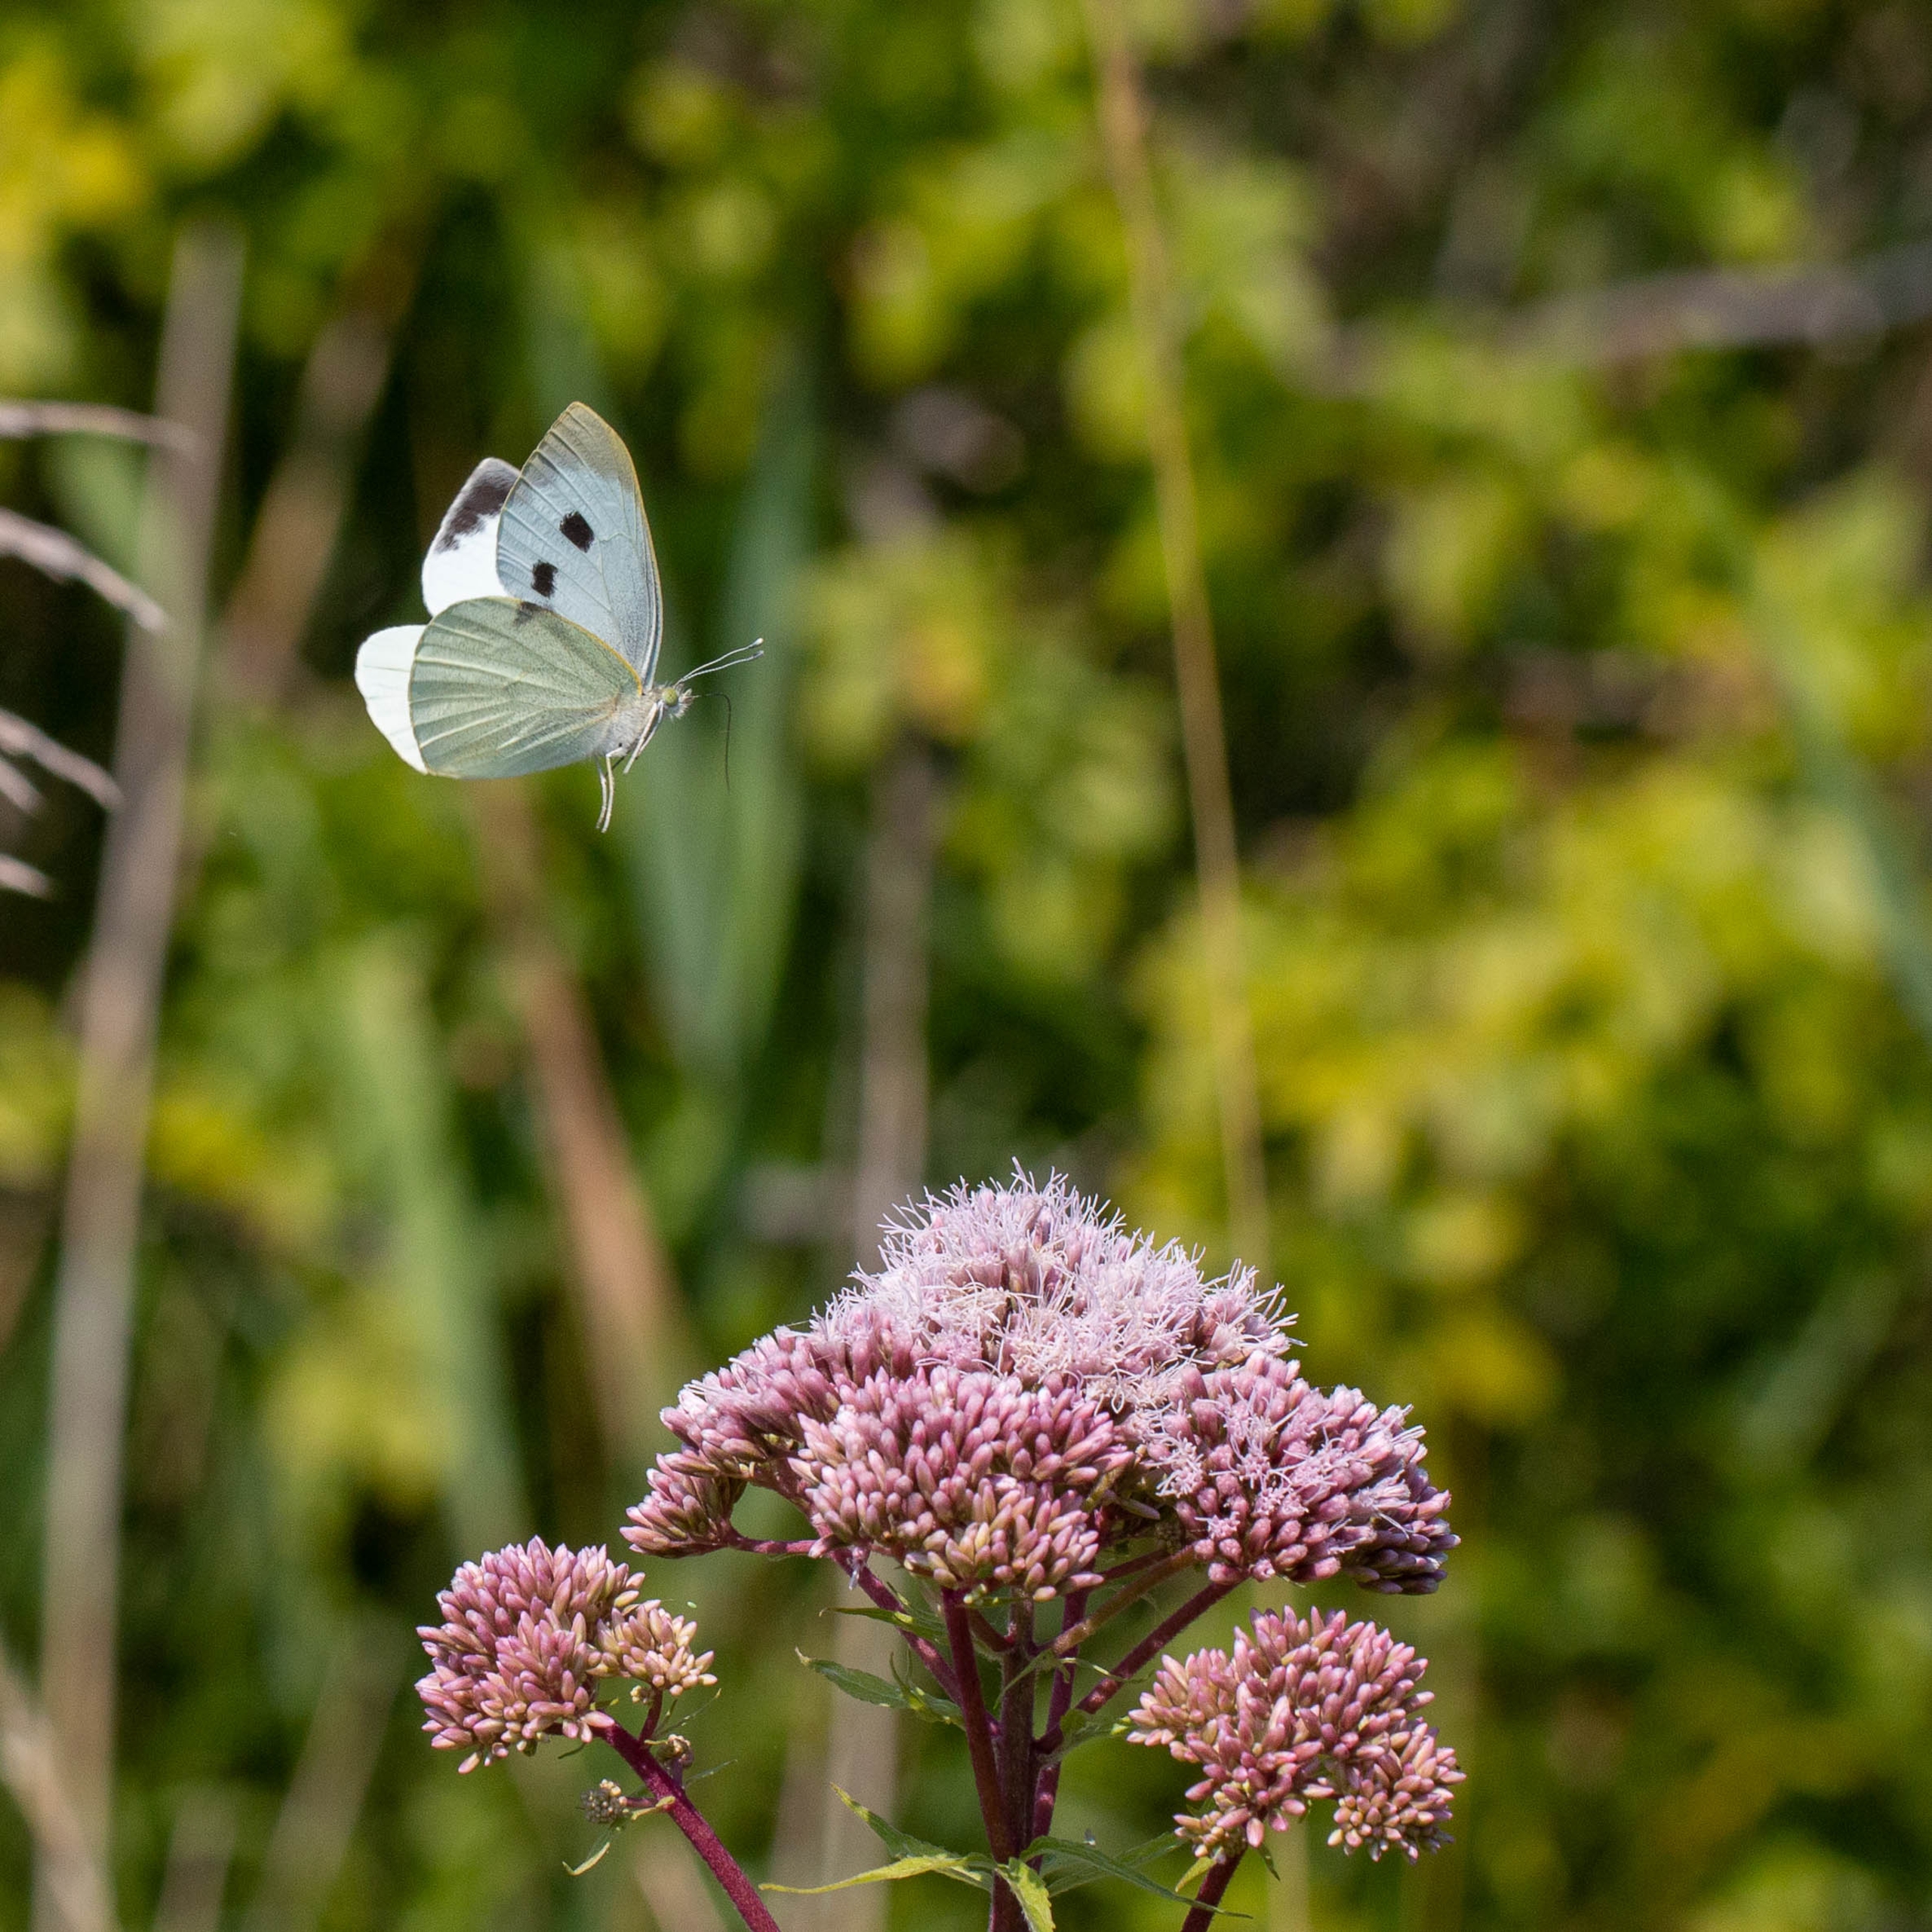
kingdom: Animalia
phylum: Arthropoda
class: Insecta
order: Lepidoptera
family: Pieridae
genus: Pieris
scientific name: Pieris brassicae
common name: Stor kålsommerfugl
